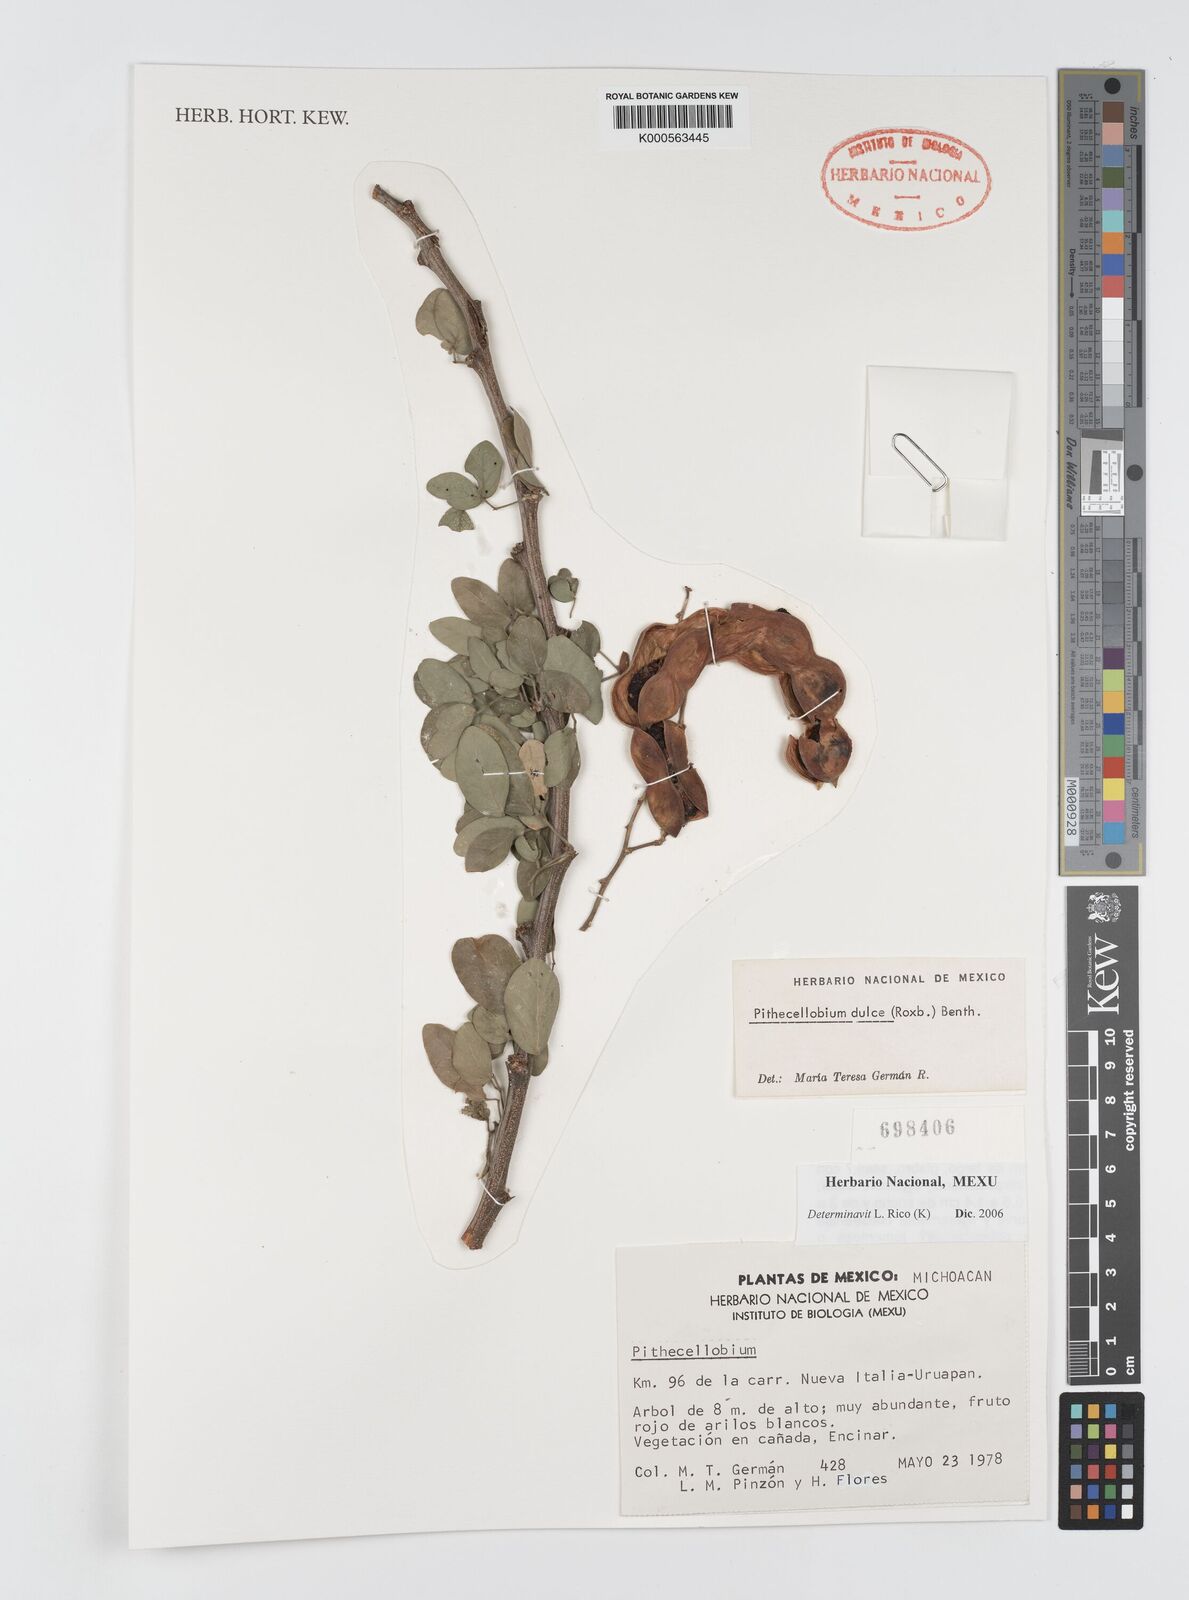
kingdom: Plantae
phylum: Tracheophyta
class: Magnoliopsida
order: Fabales
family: Fabaceae
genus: Pithecellobium
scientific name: Pithecellobium dulce
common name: Monkeypod
